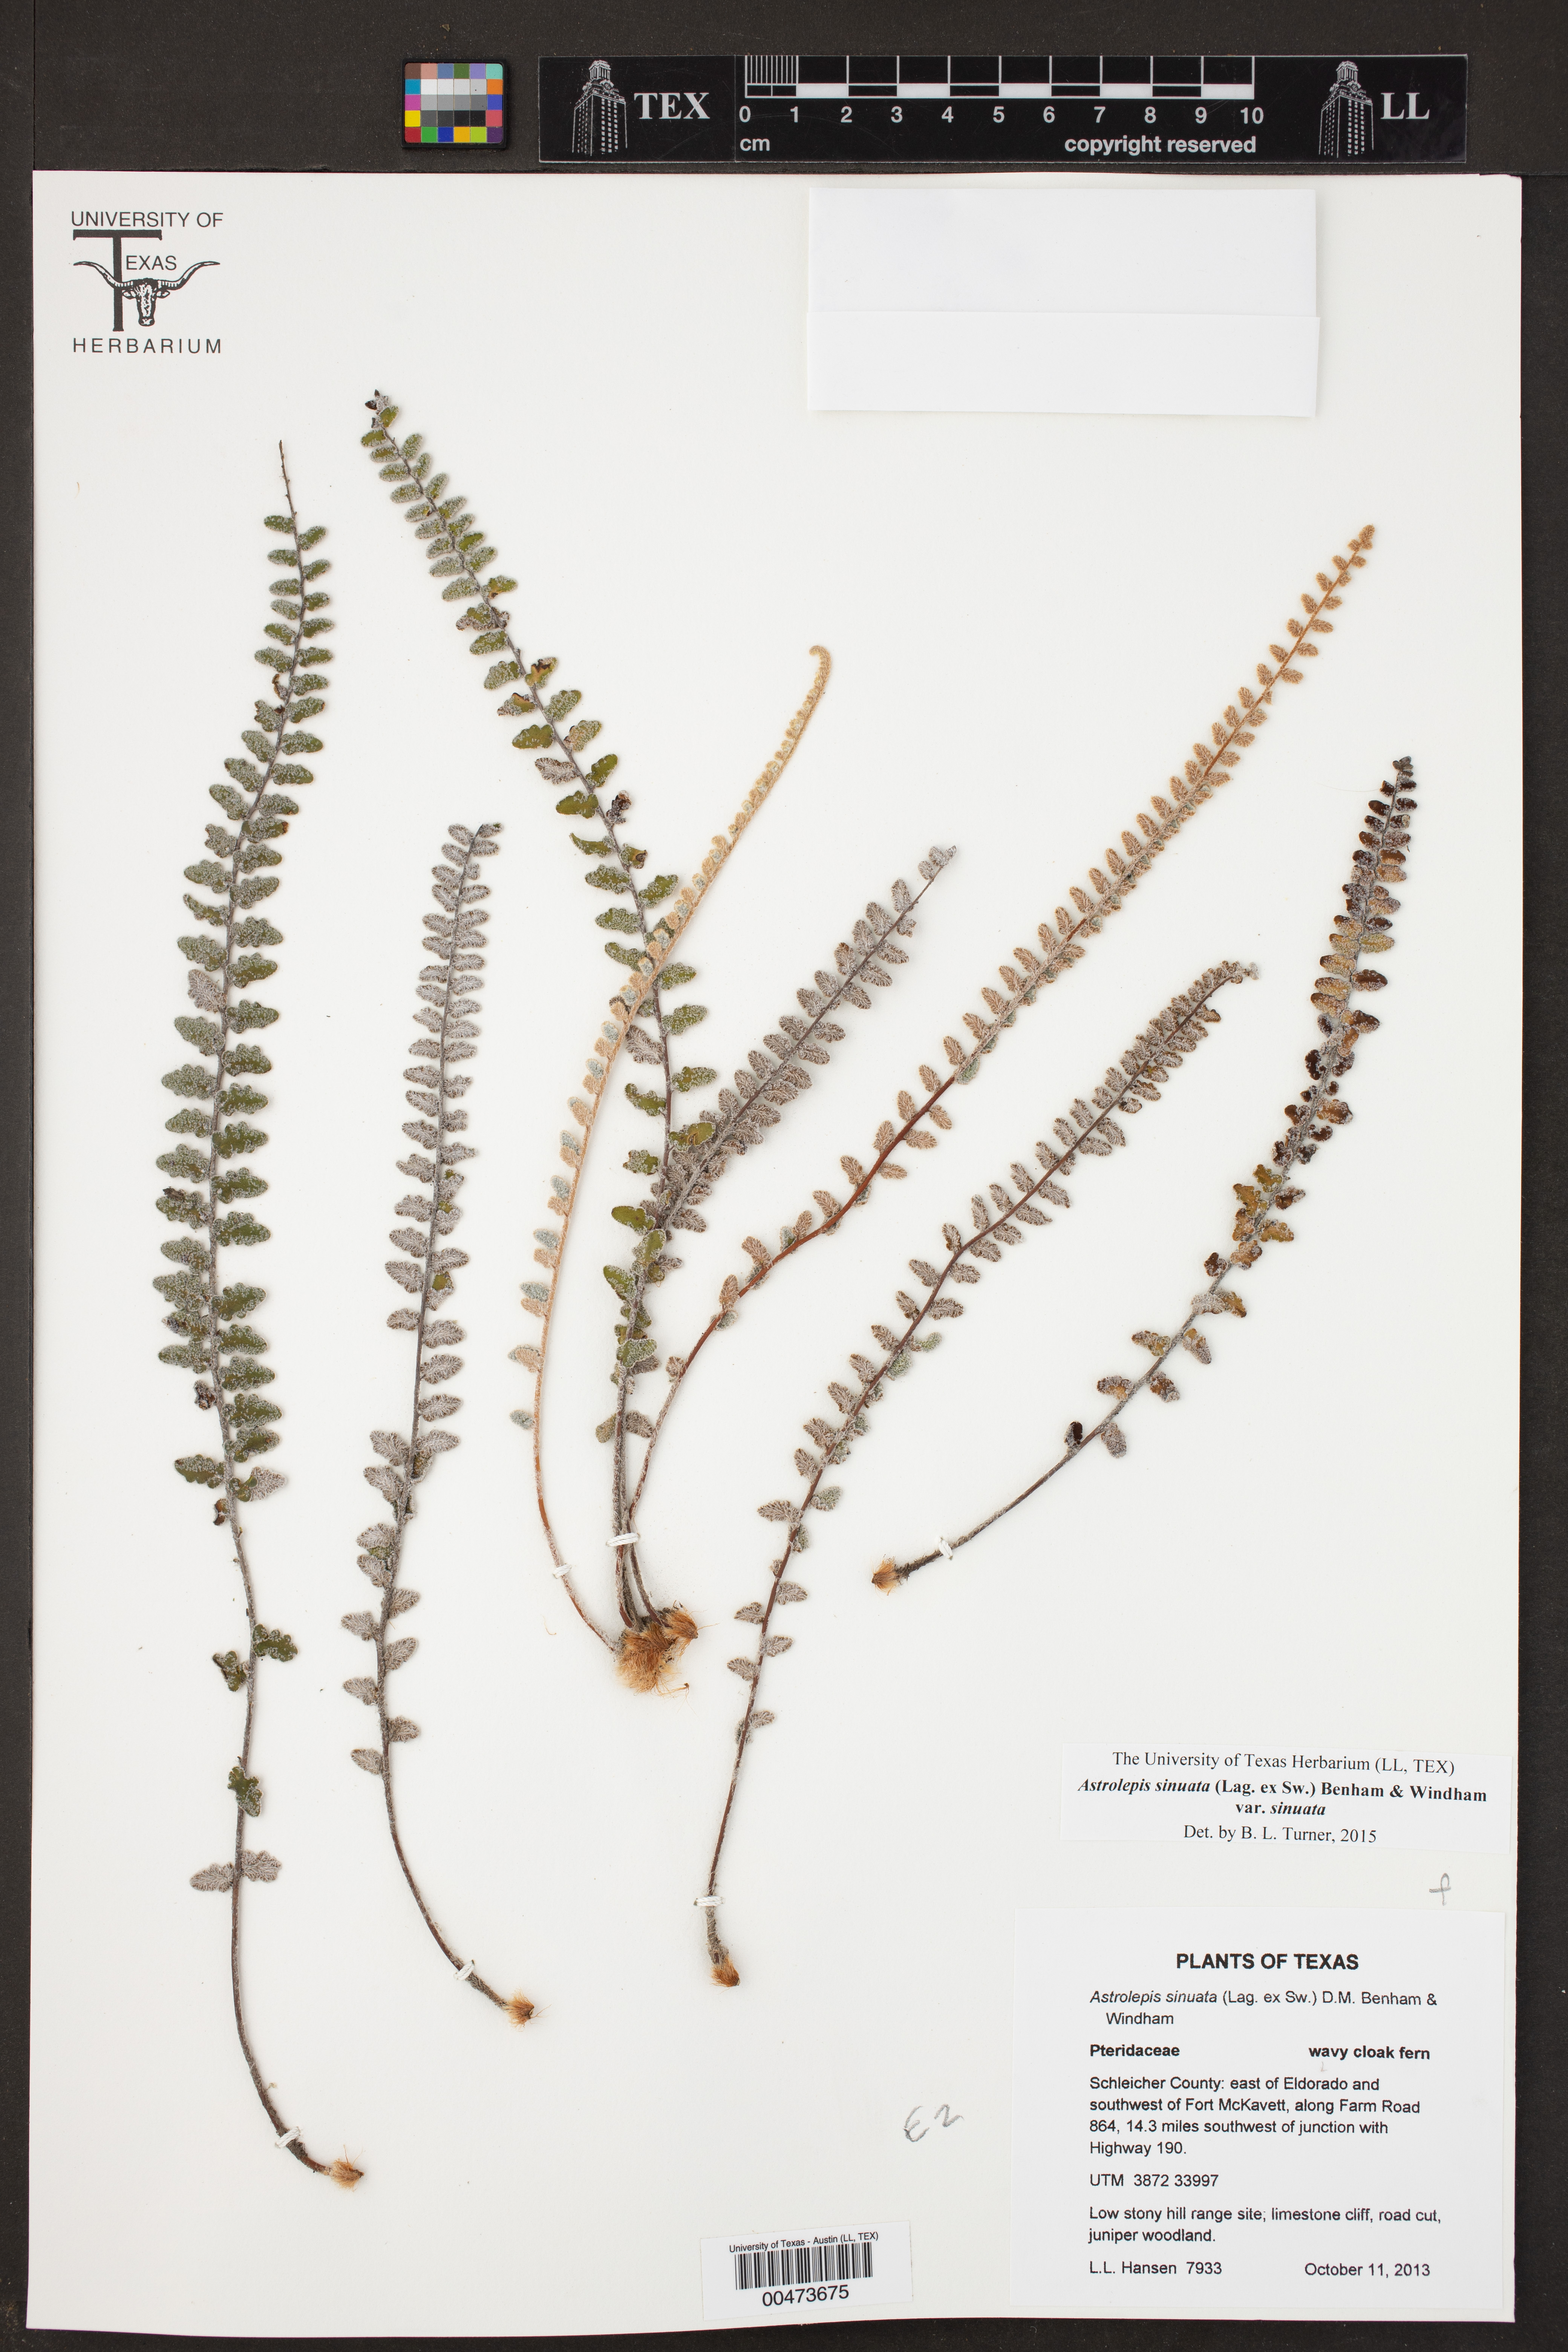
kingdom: Plantae
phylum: Tracheophyta
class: Polypodiopsida
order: Polypodiales
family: Pteridaceae
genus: Astrolepis
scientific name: Astrolepis sinuata
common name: Wavy scaly cloakfern
